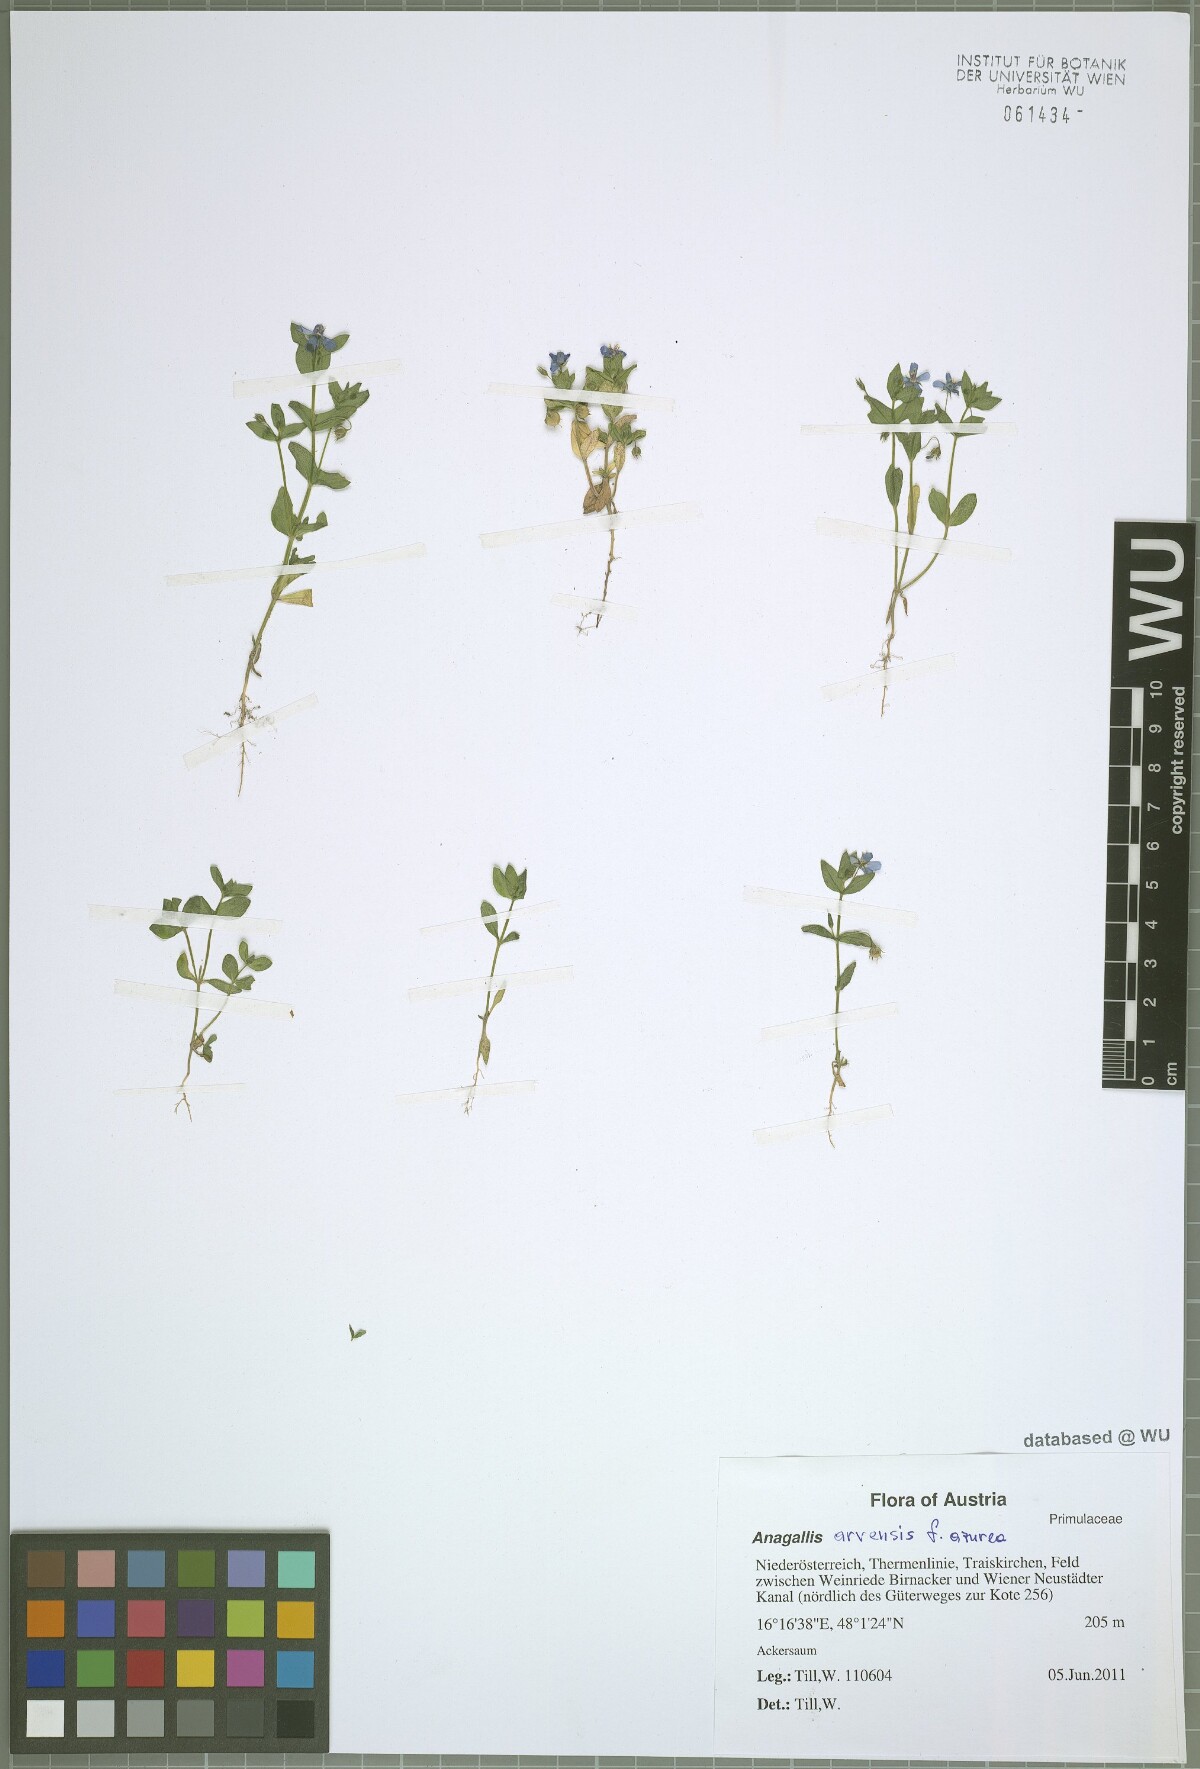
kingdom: Plantae
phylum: Tracheophyta
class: Magnoliopsida
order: Ericales
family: Primulaceae
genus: Lysimachia
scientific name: Lysimachia arvensis
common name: Scarlet pimpernel
